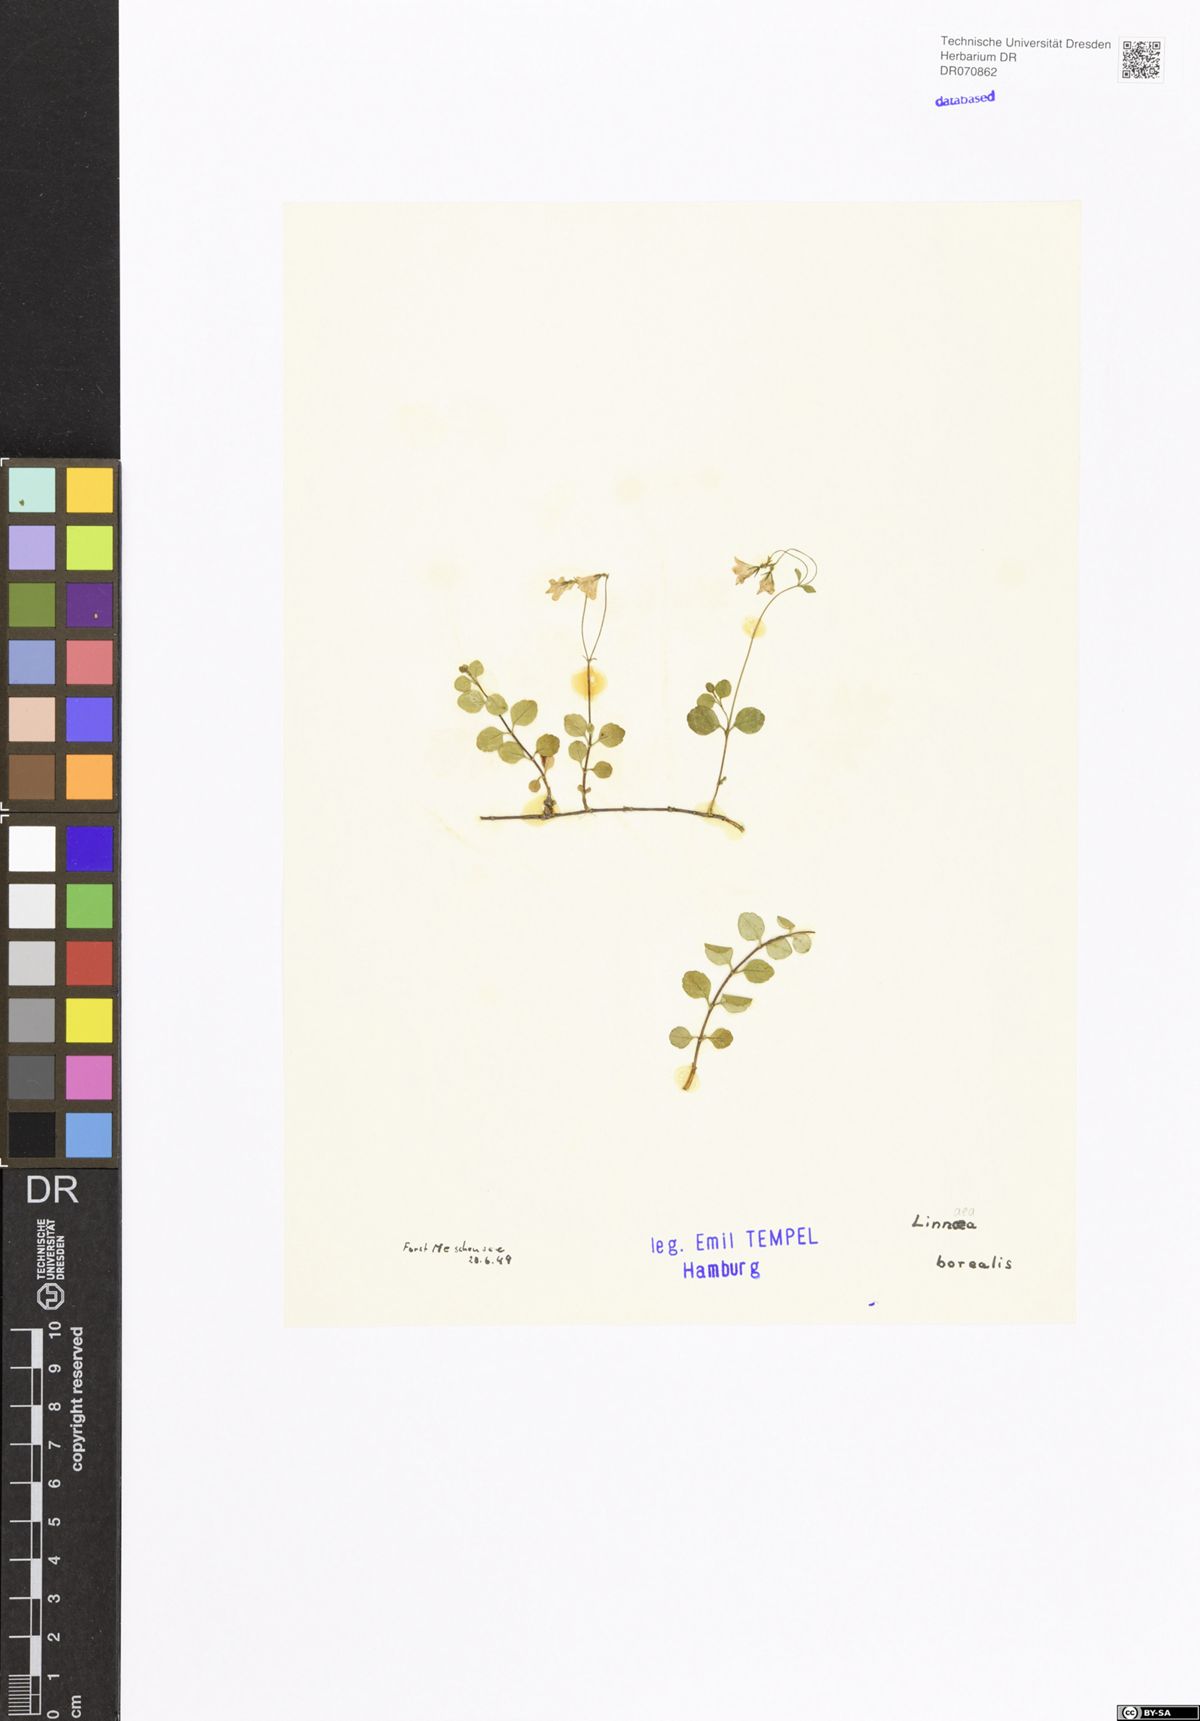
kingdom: Plantae
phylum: Tracheophyta
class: Magnoliopsida
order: Dipsacales
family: Caprifoliaceae
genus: Linnaea
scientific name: Linnaea borealis
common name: Twinflower
